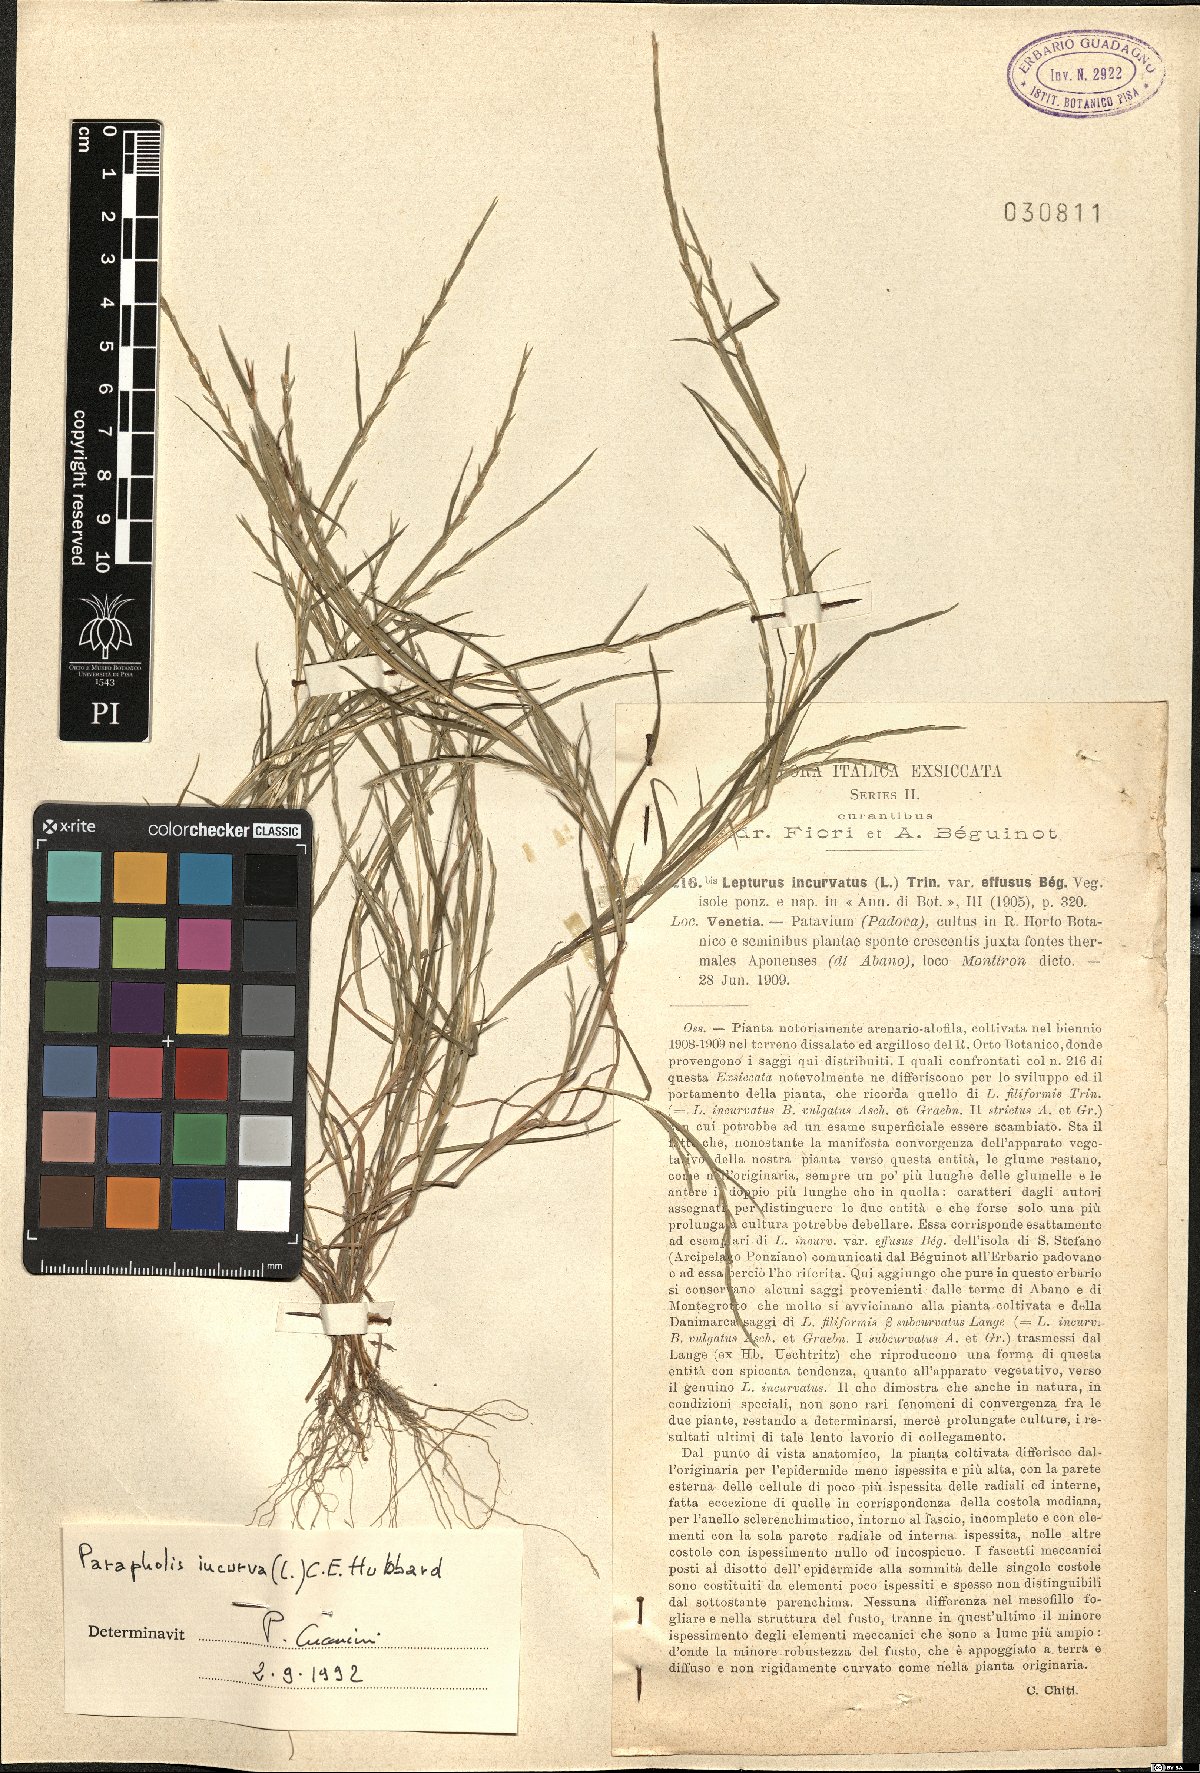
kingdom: Plantae
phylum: Tracheophyta
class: Liliopsida
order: Poales
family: Poaceae
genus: Parapholis
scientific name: Parapholis incurva
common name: Curved sicklegrass
